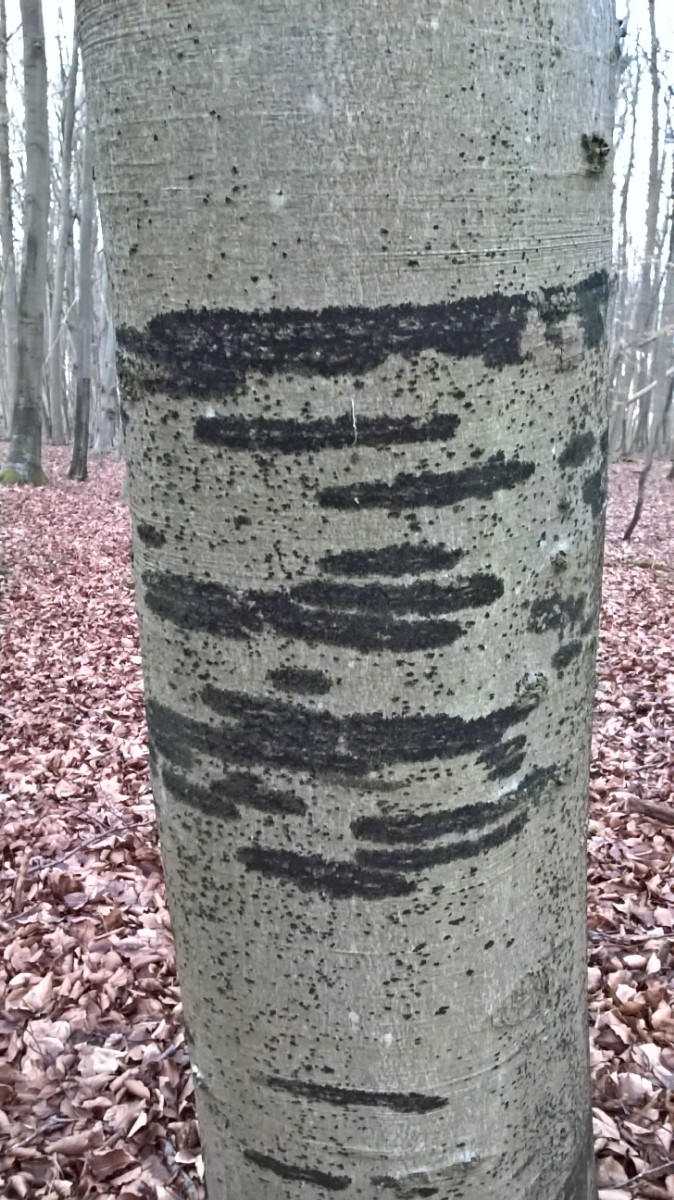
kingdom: Fungi
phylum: Ascomycota
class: Leotiomycetes
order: Rhytismatales
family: Ascodichaenaceae
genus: Ascodichaena
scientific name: Ascodichaena rugosa
